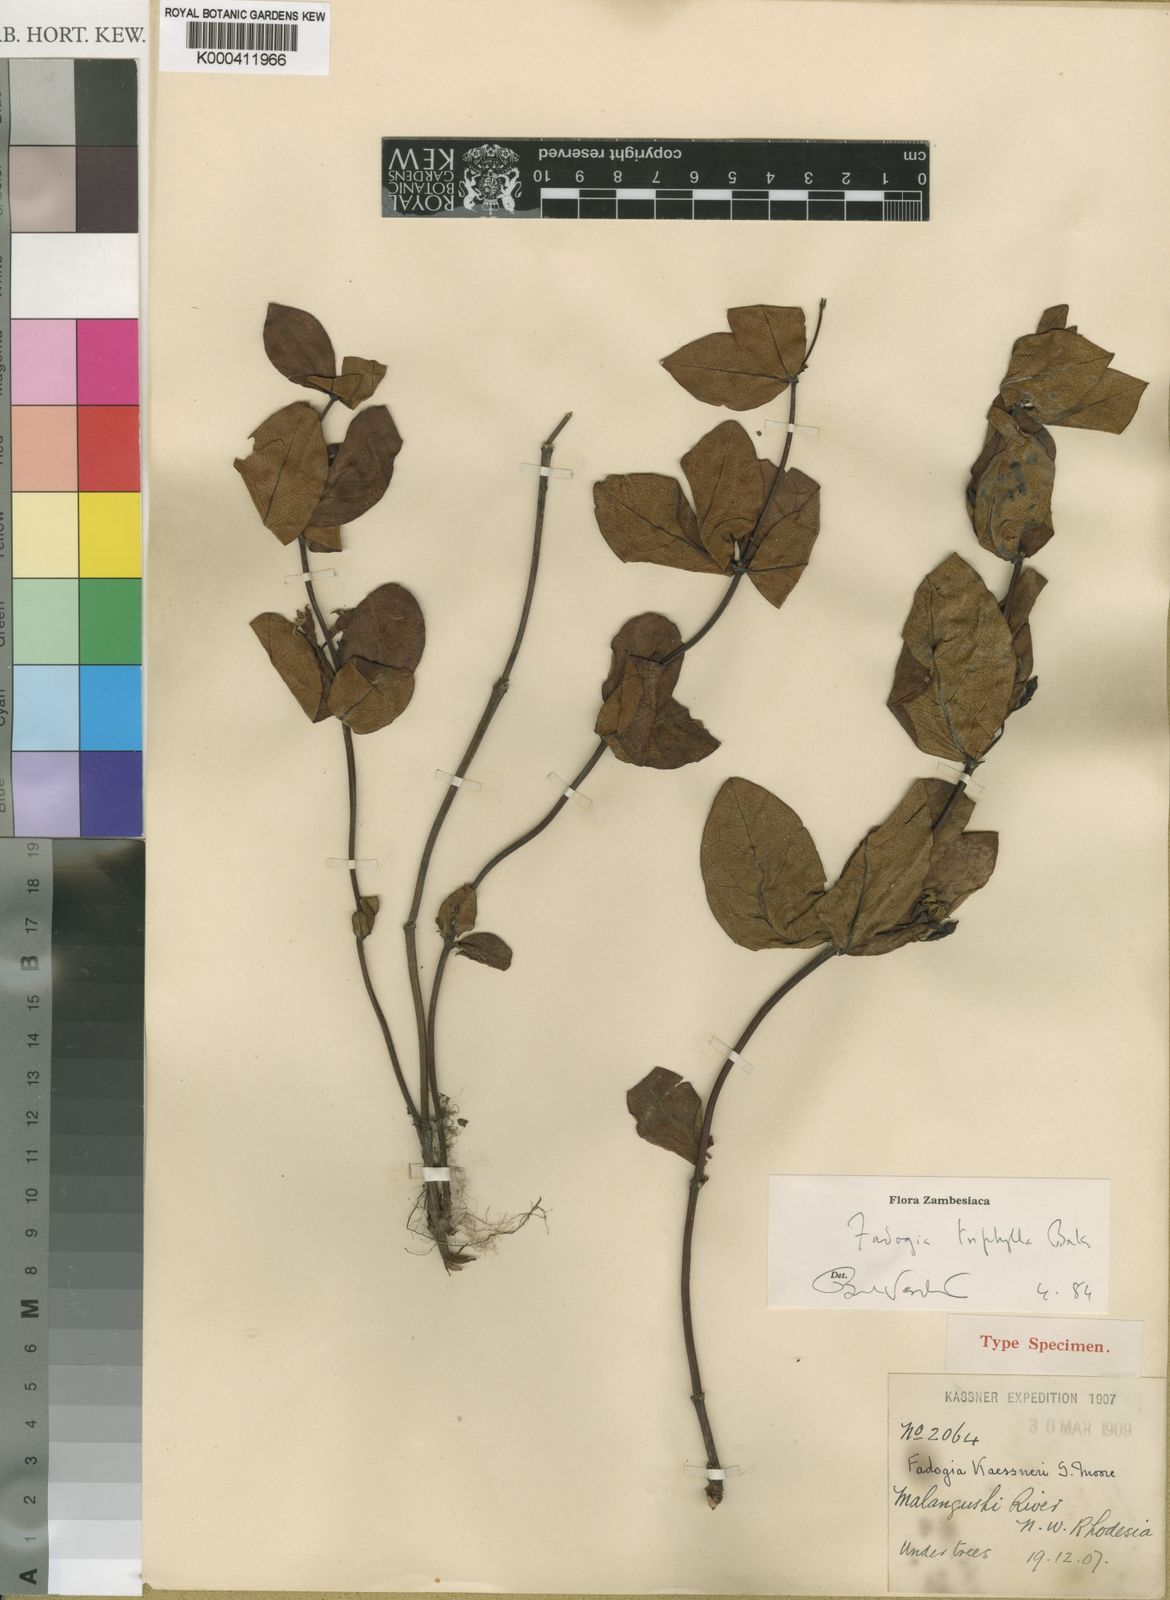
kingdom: Plantae
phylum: Tracheophyta
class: Magnoliopsida
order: Gentianales
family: Rubiaceae
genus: Fadogia
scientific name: Fadogia triphylla
